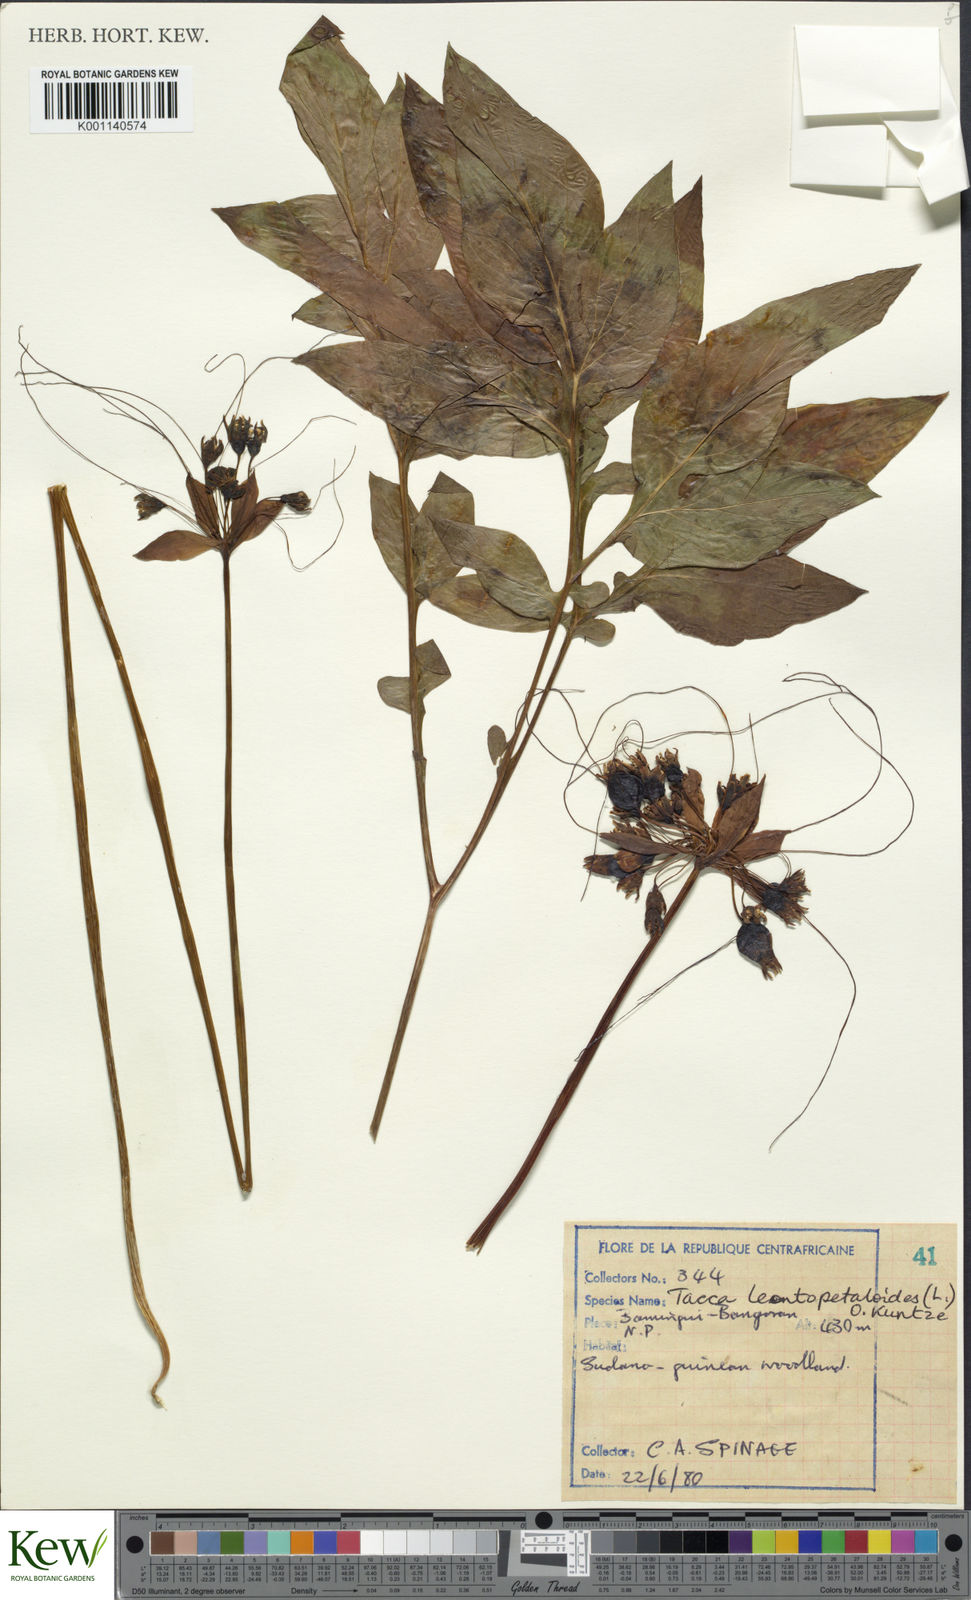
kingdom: Plantae
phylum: Tracheophyta
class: Liliopsida
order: Dioscoreales
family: Dioscoreaceae
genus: Tacca
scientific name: Tacca leontopetaloides
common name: Arrowroot
